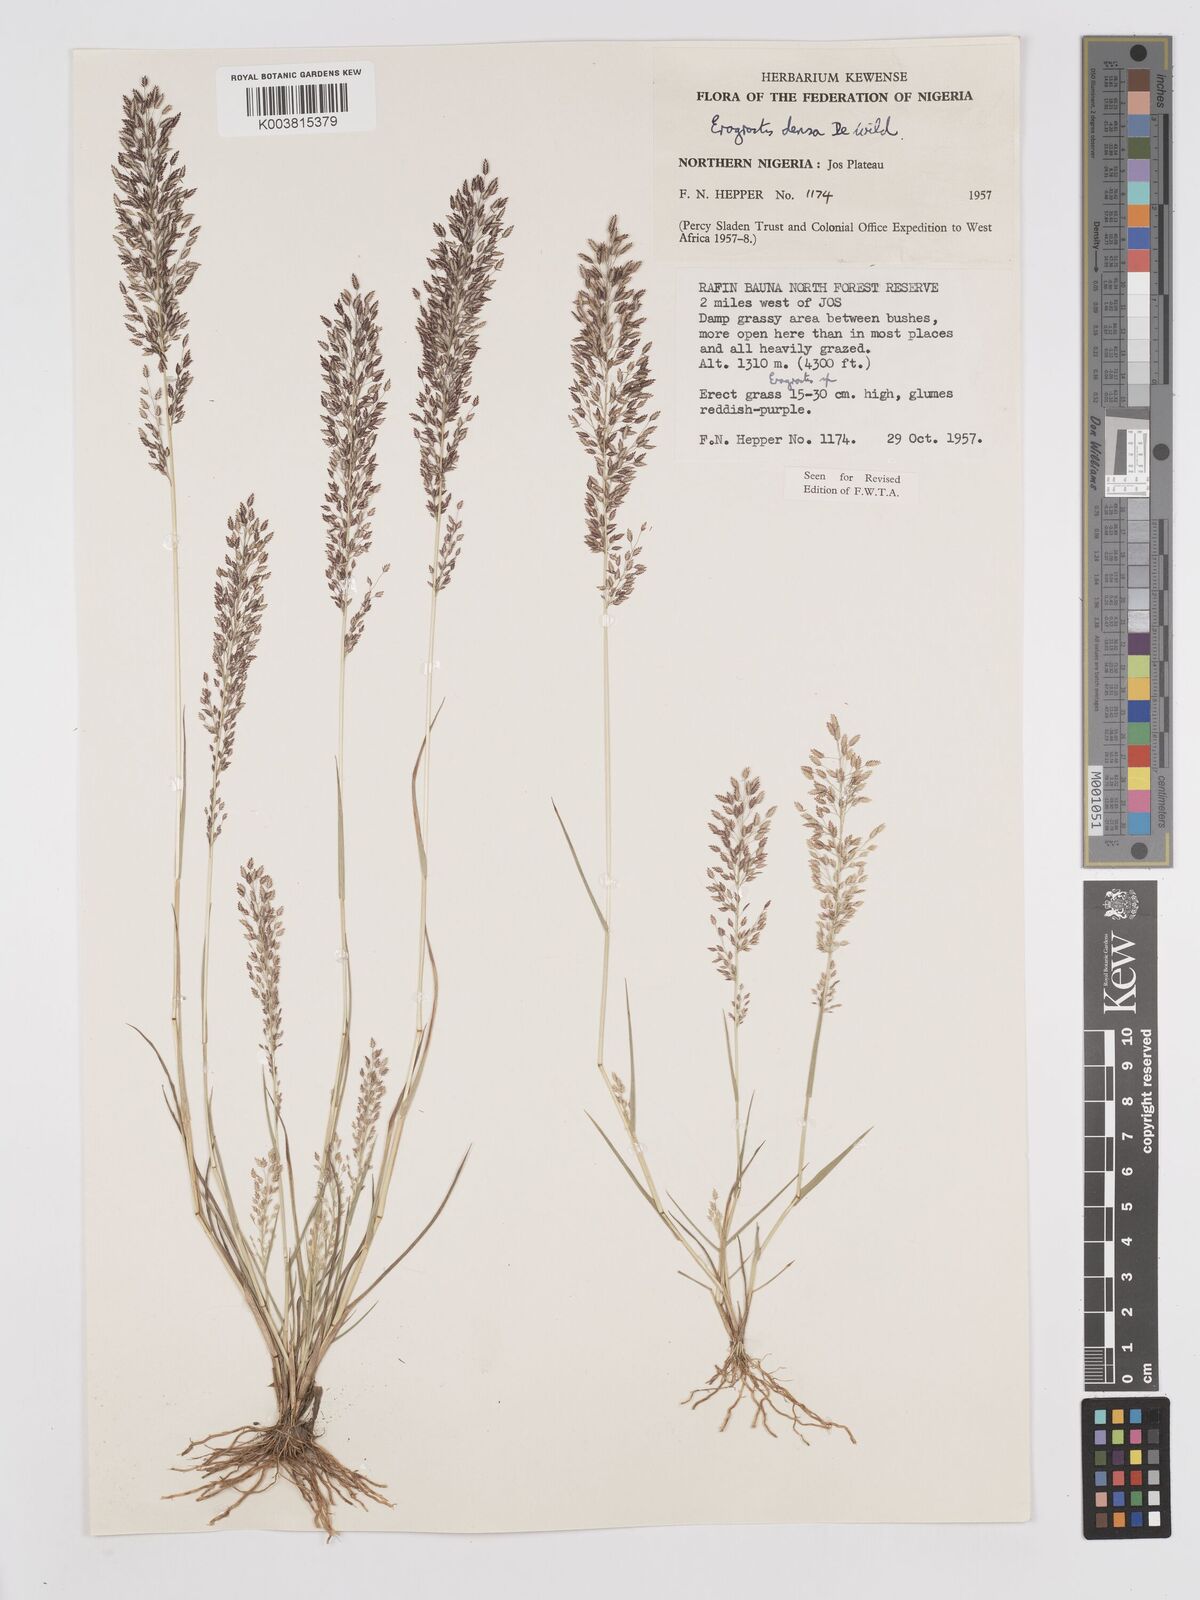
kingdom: Plantae
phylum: Tracheophyta
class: Liliopsida
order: Poales
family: Poaceae
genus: Eragrostis
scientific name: Eragrostis welwitschii
